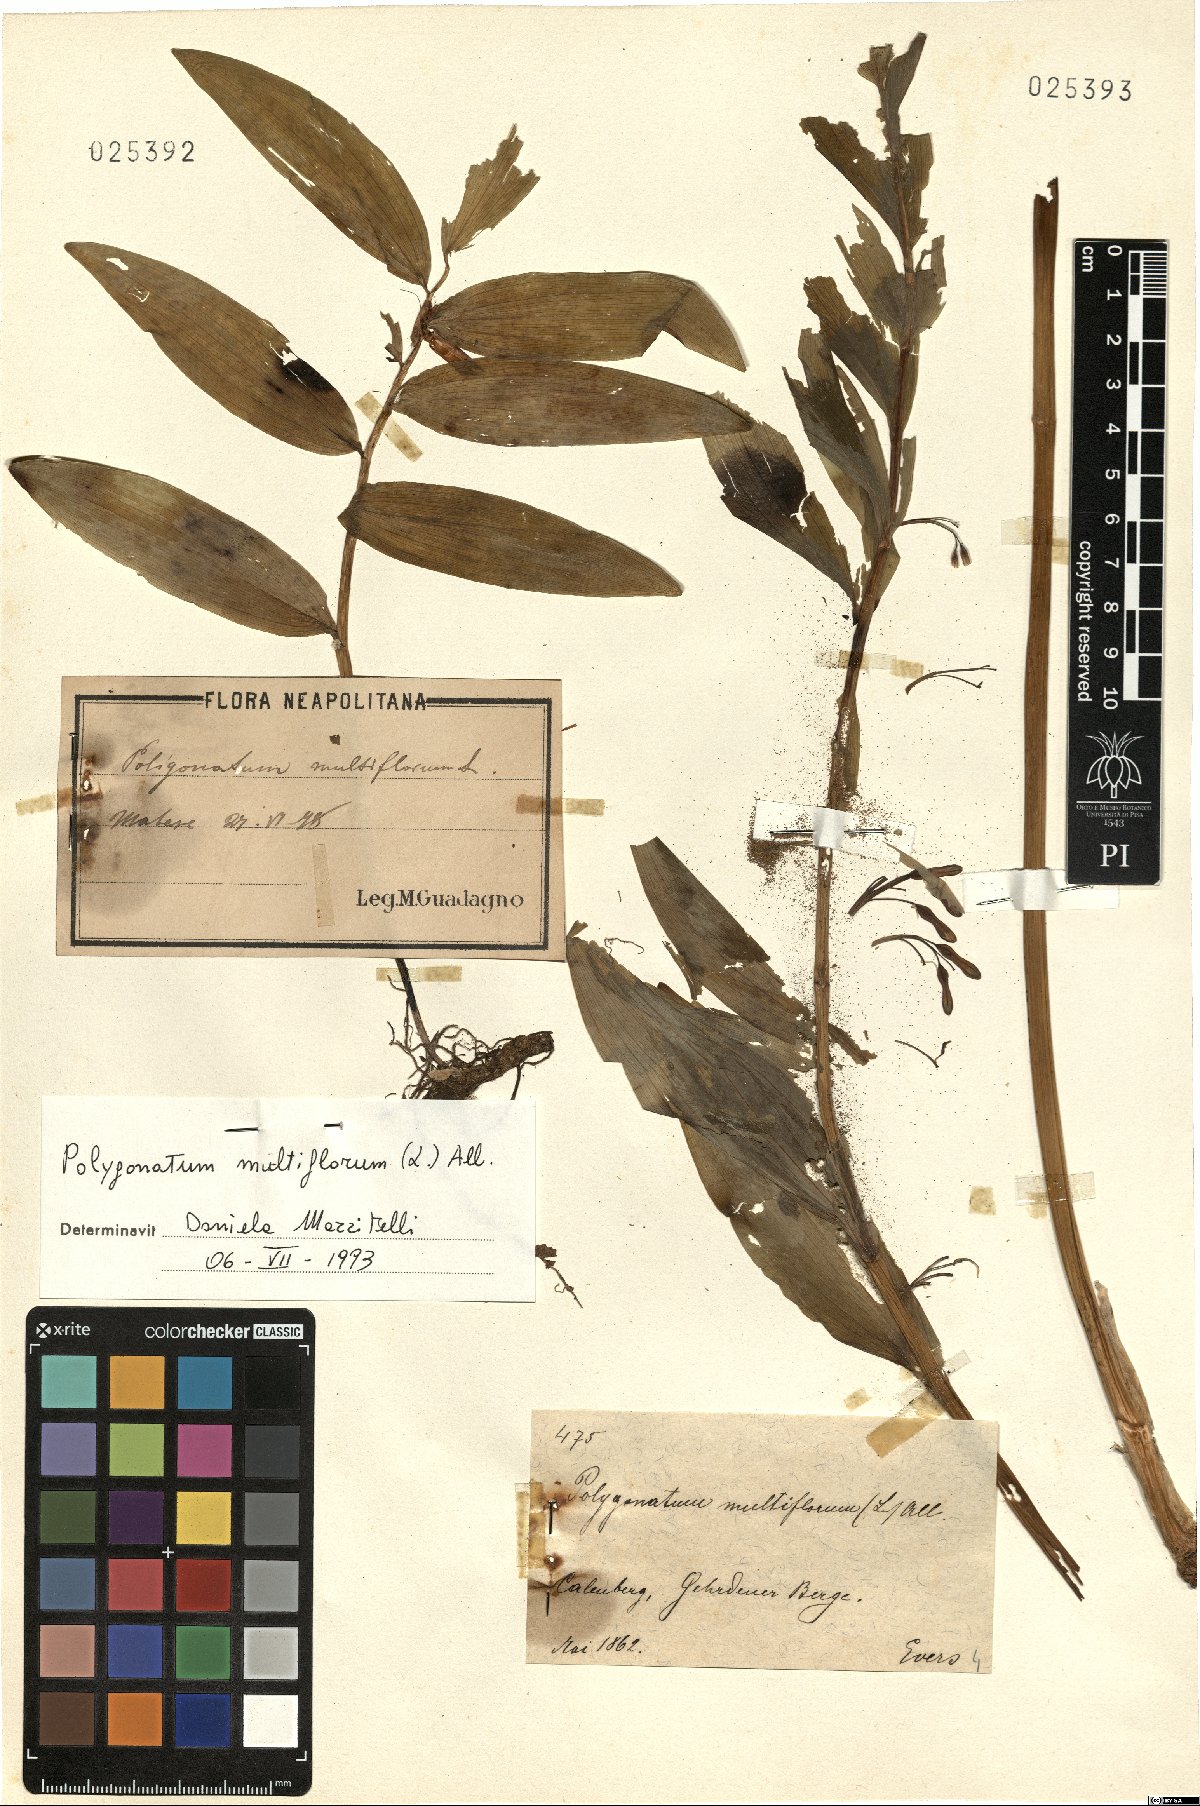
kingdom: Plantae
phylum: Tracheophyta
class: Liliopsida
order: Asparagales
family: Asparagaceae
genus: Polygonatum
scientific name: Polygonatum multiflorum
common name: Solomon's-seal
